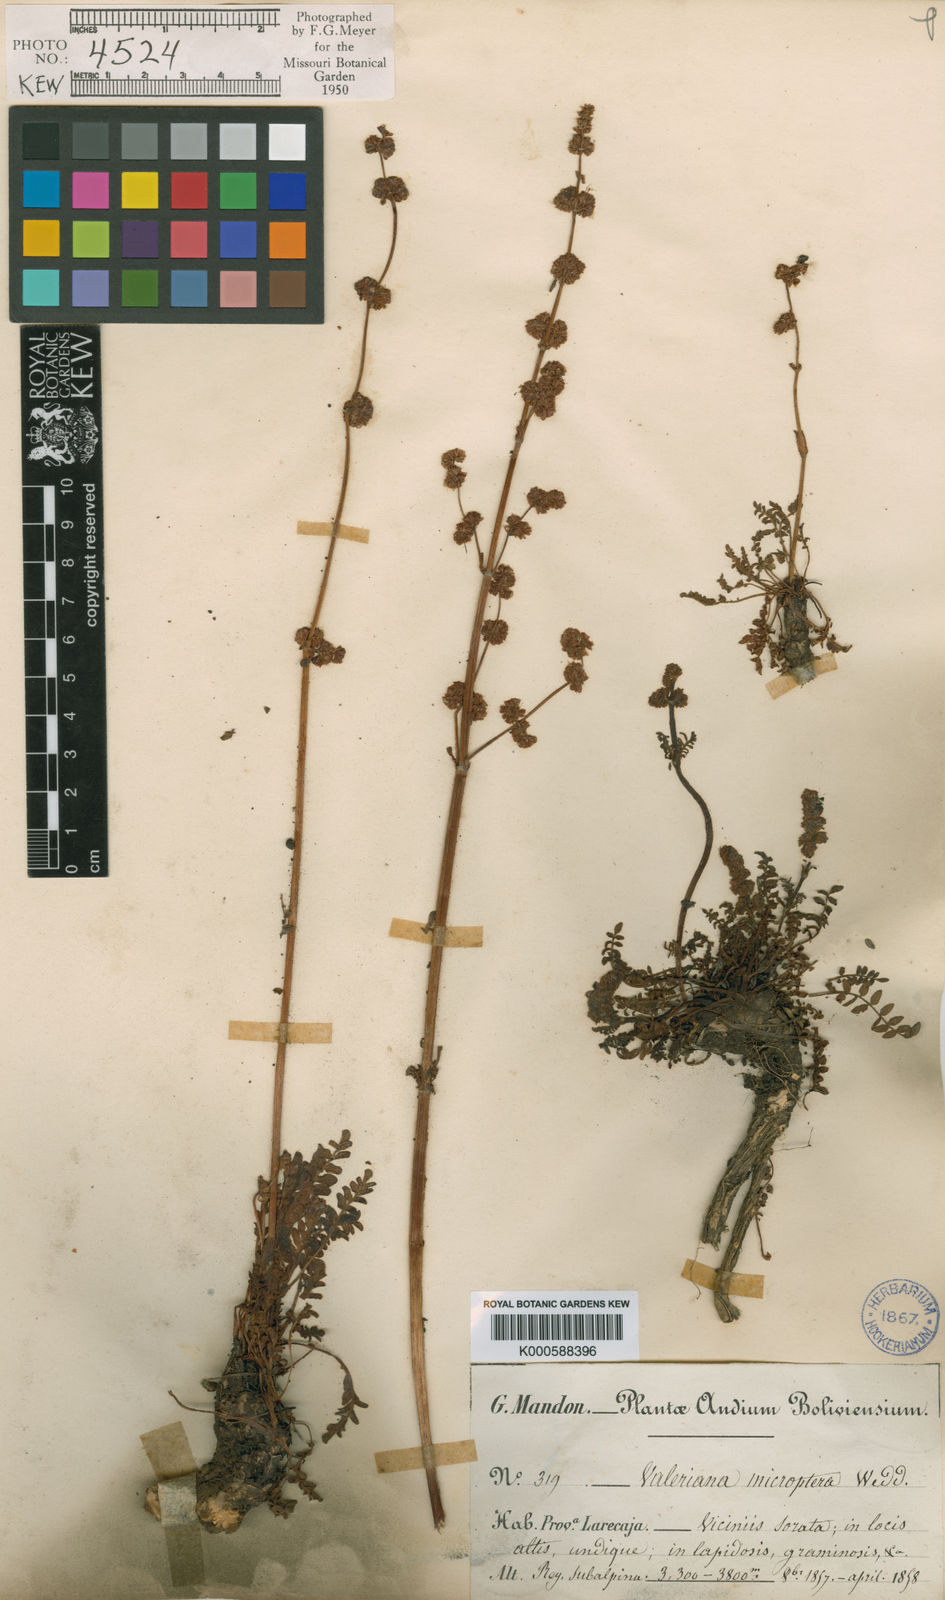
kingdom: Plantae
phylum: Tracheophyta
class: Magnoliopsida
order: Dipsacales
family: Caprifoliaceae
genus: Valeriana
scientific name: Valeriana micropterina
